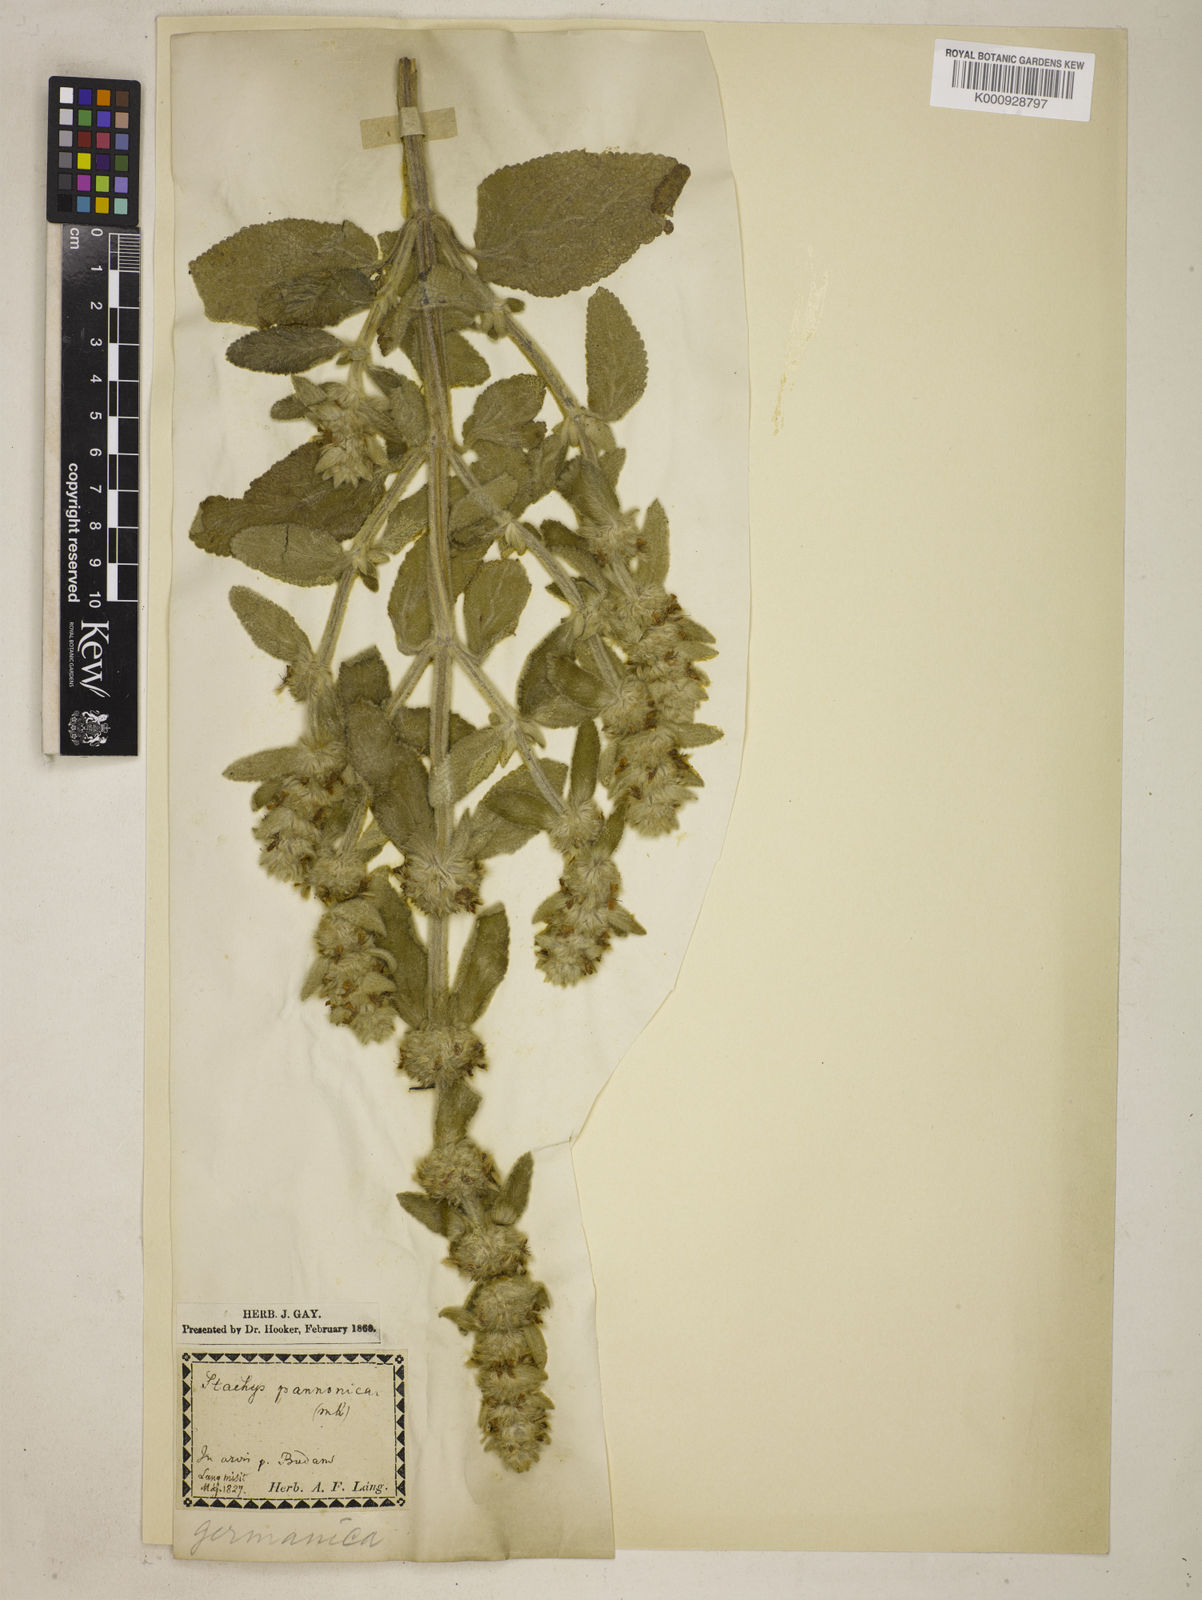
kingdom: Plantae
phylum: Tracheophyta
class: Magnoliopsida
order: Lamiales
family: Lamiaceae
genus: Stachys
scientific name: Stachys germanica
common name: Downy woundwort
